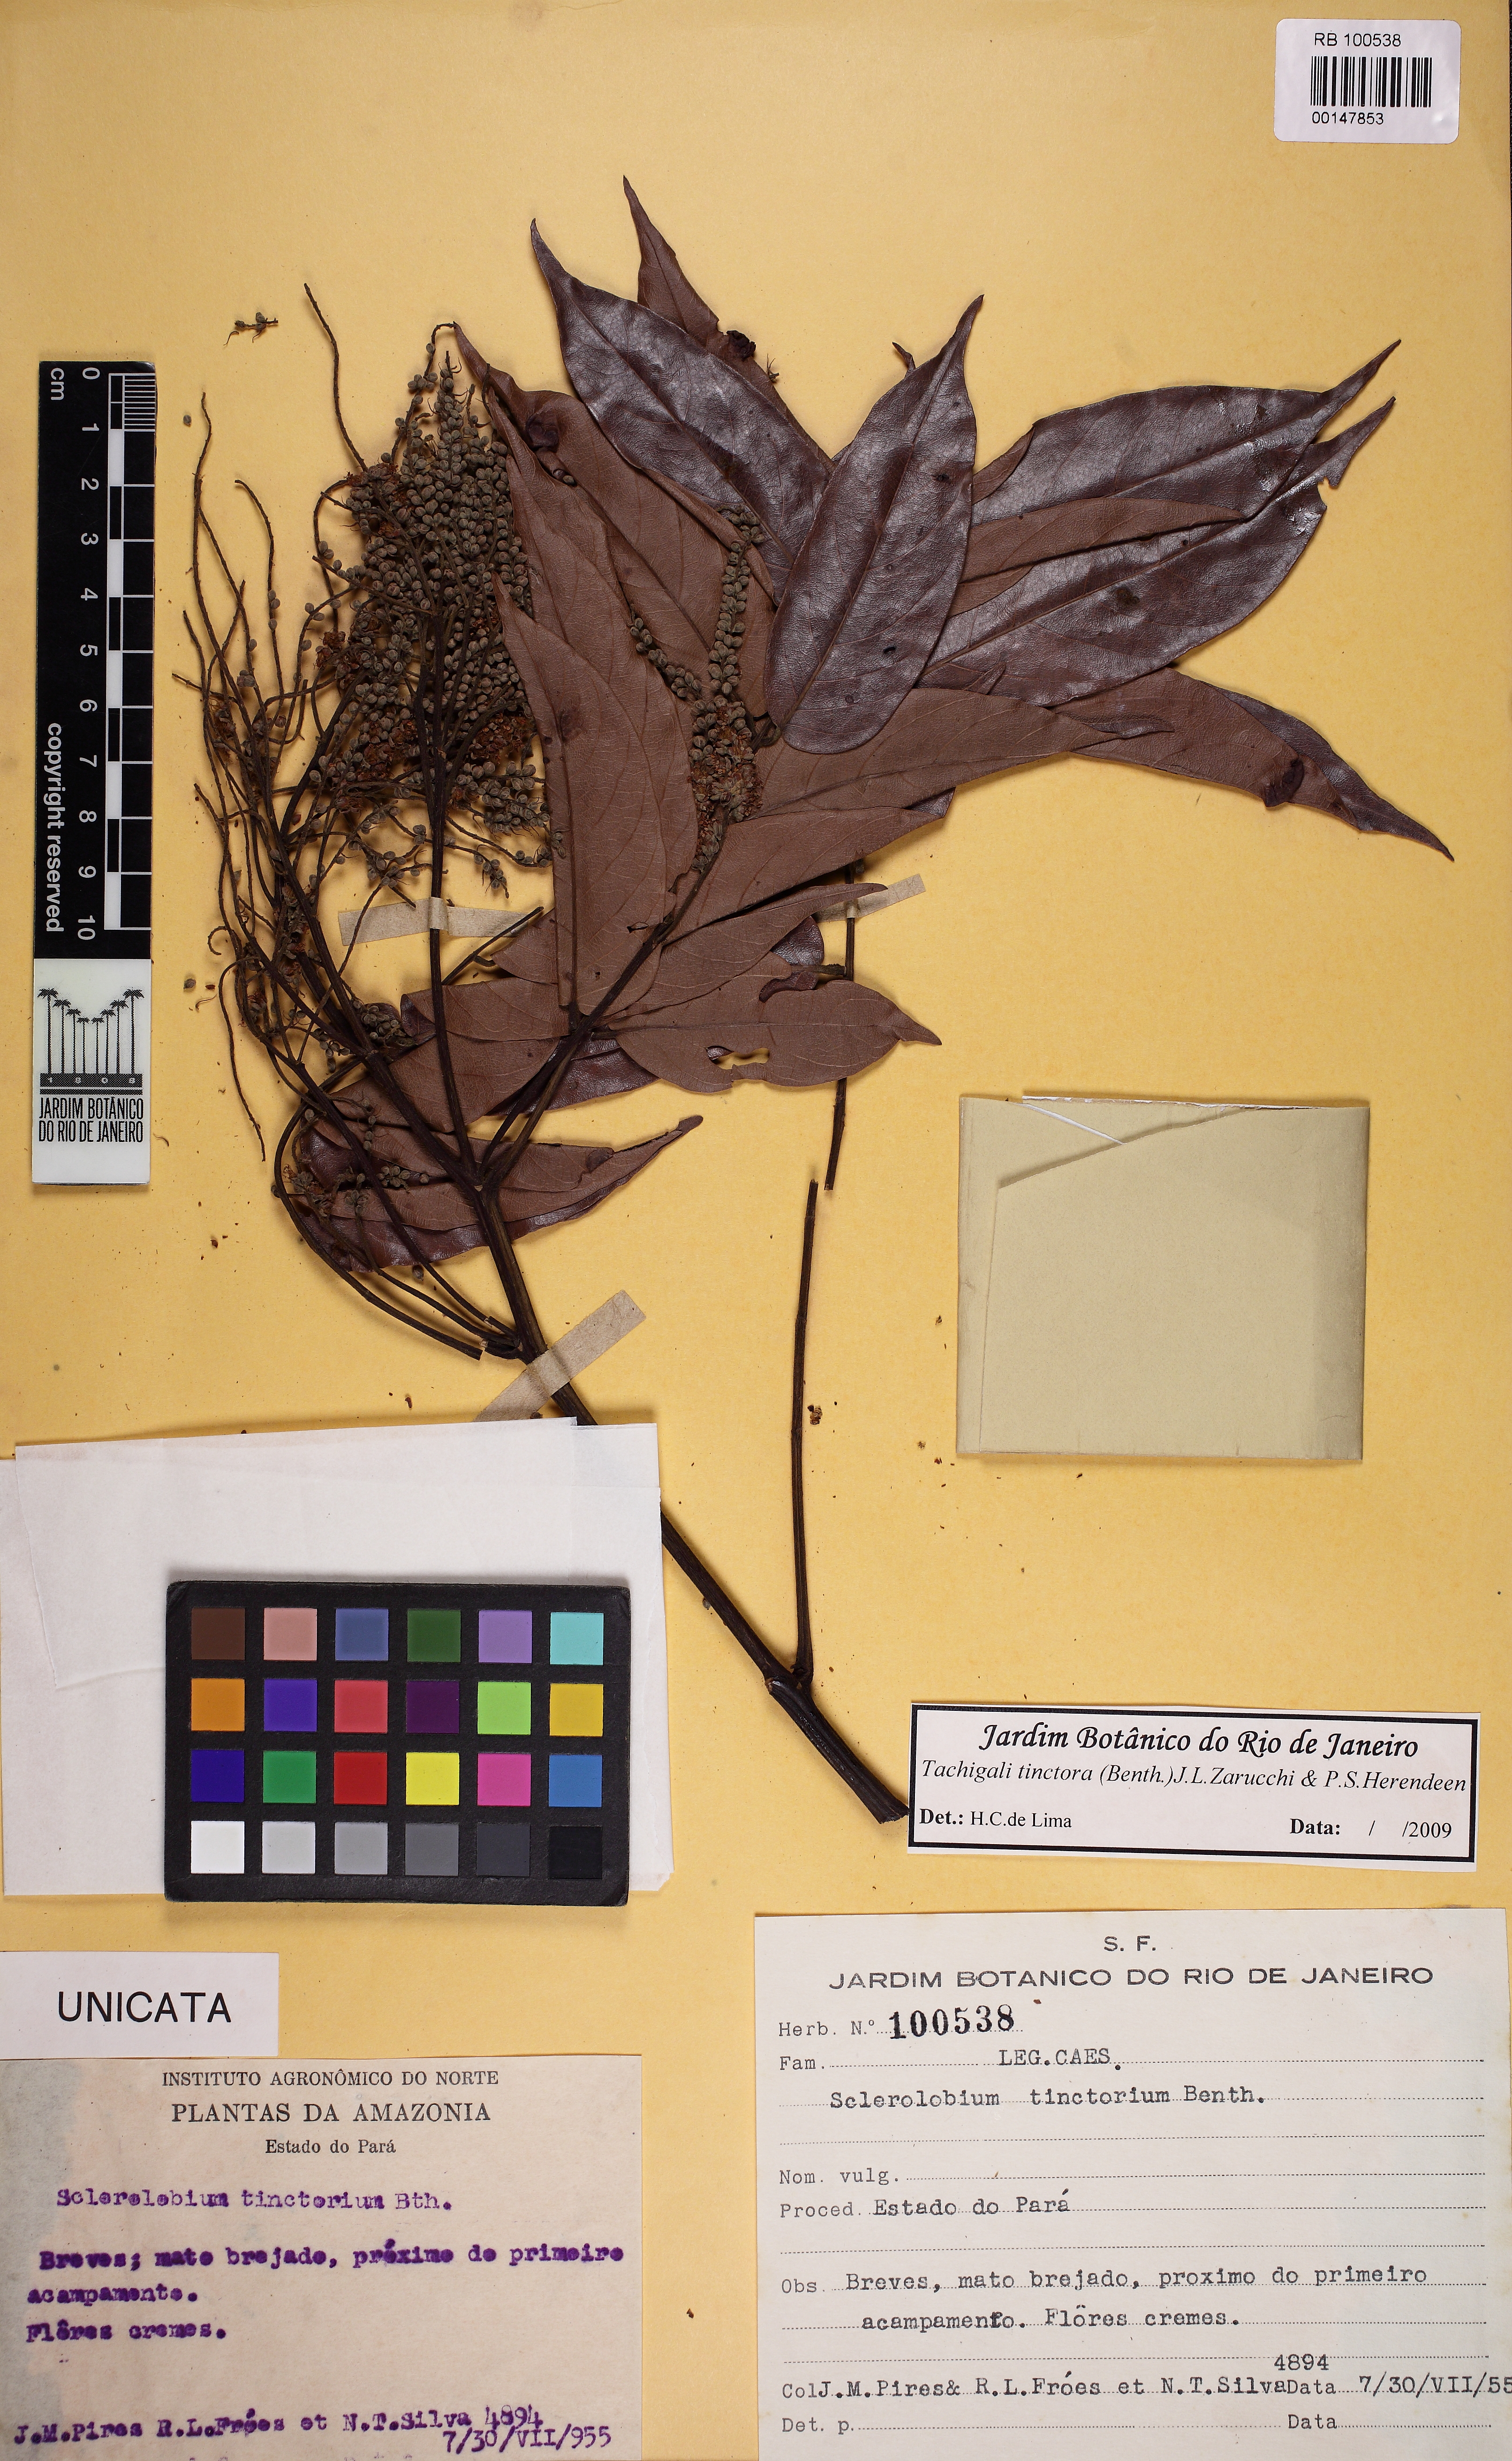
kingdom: Plantae
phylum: Tracheophyta
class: Magnoliopsida
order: Fabales
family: Fabaceae
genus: Tachigali
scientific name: Tachigali tinctoria
